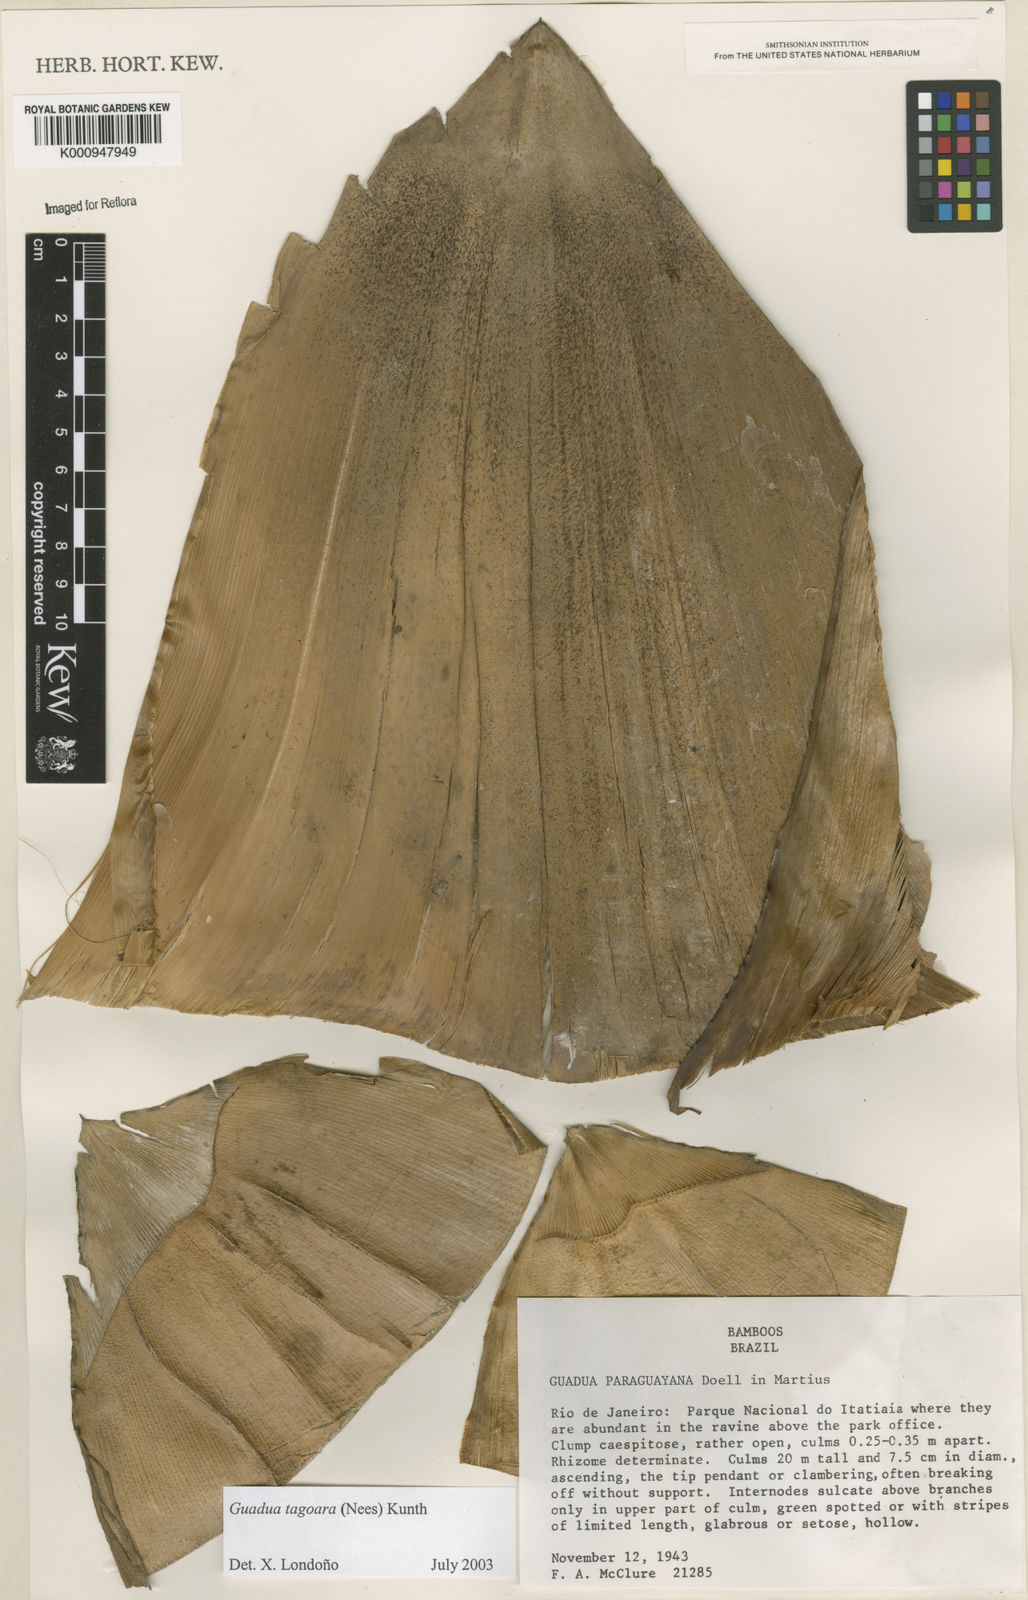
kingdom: Plantae
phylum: Tracheophyta
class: Liliopsida
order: Poales
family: Poaceae
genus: Guadua
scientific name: Guadua tagoara
